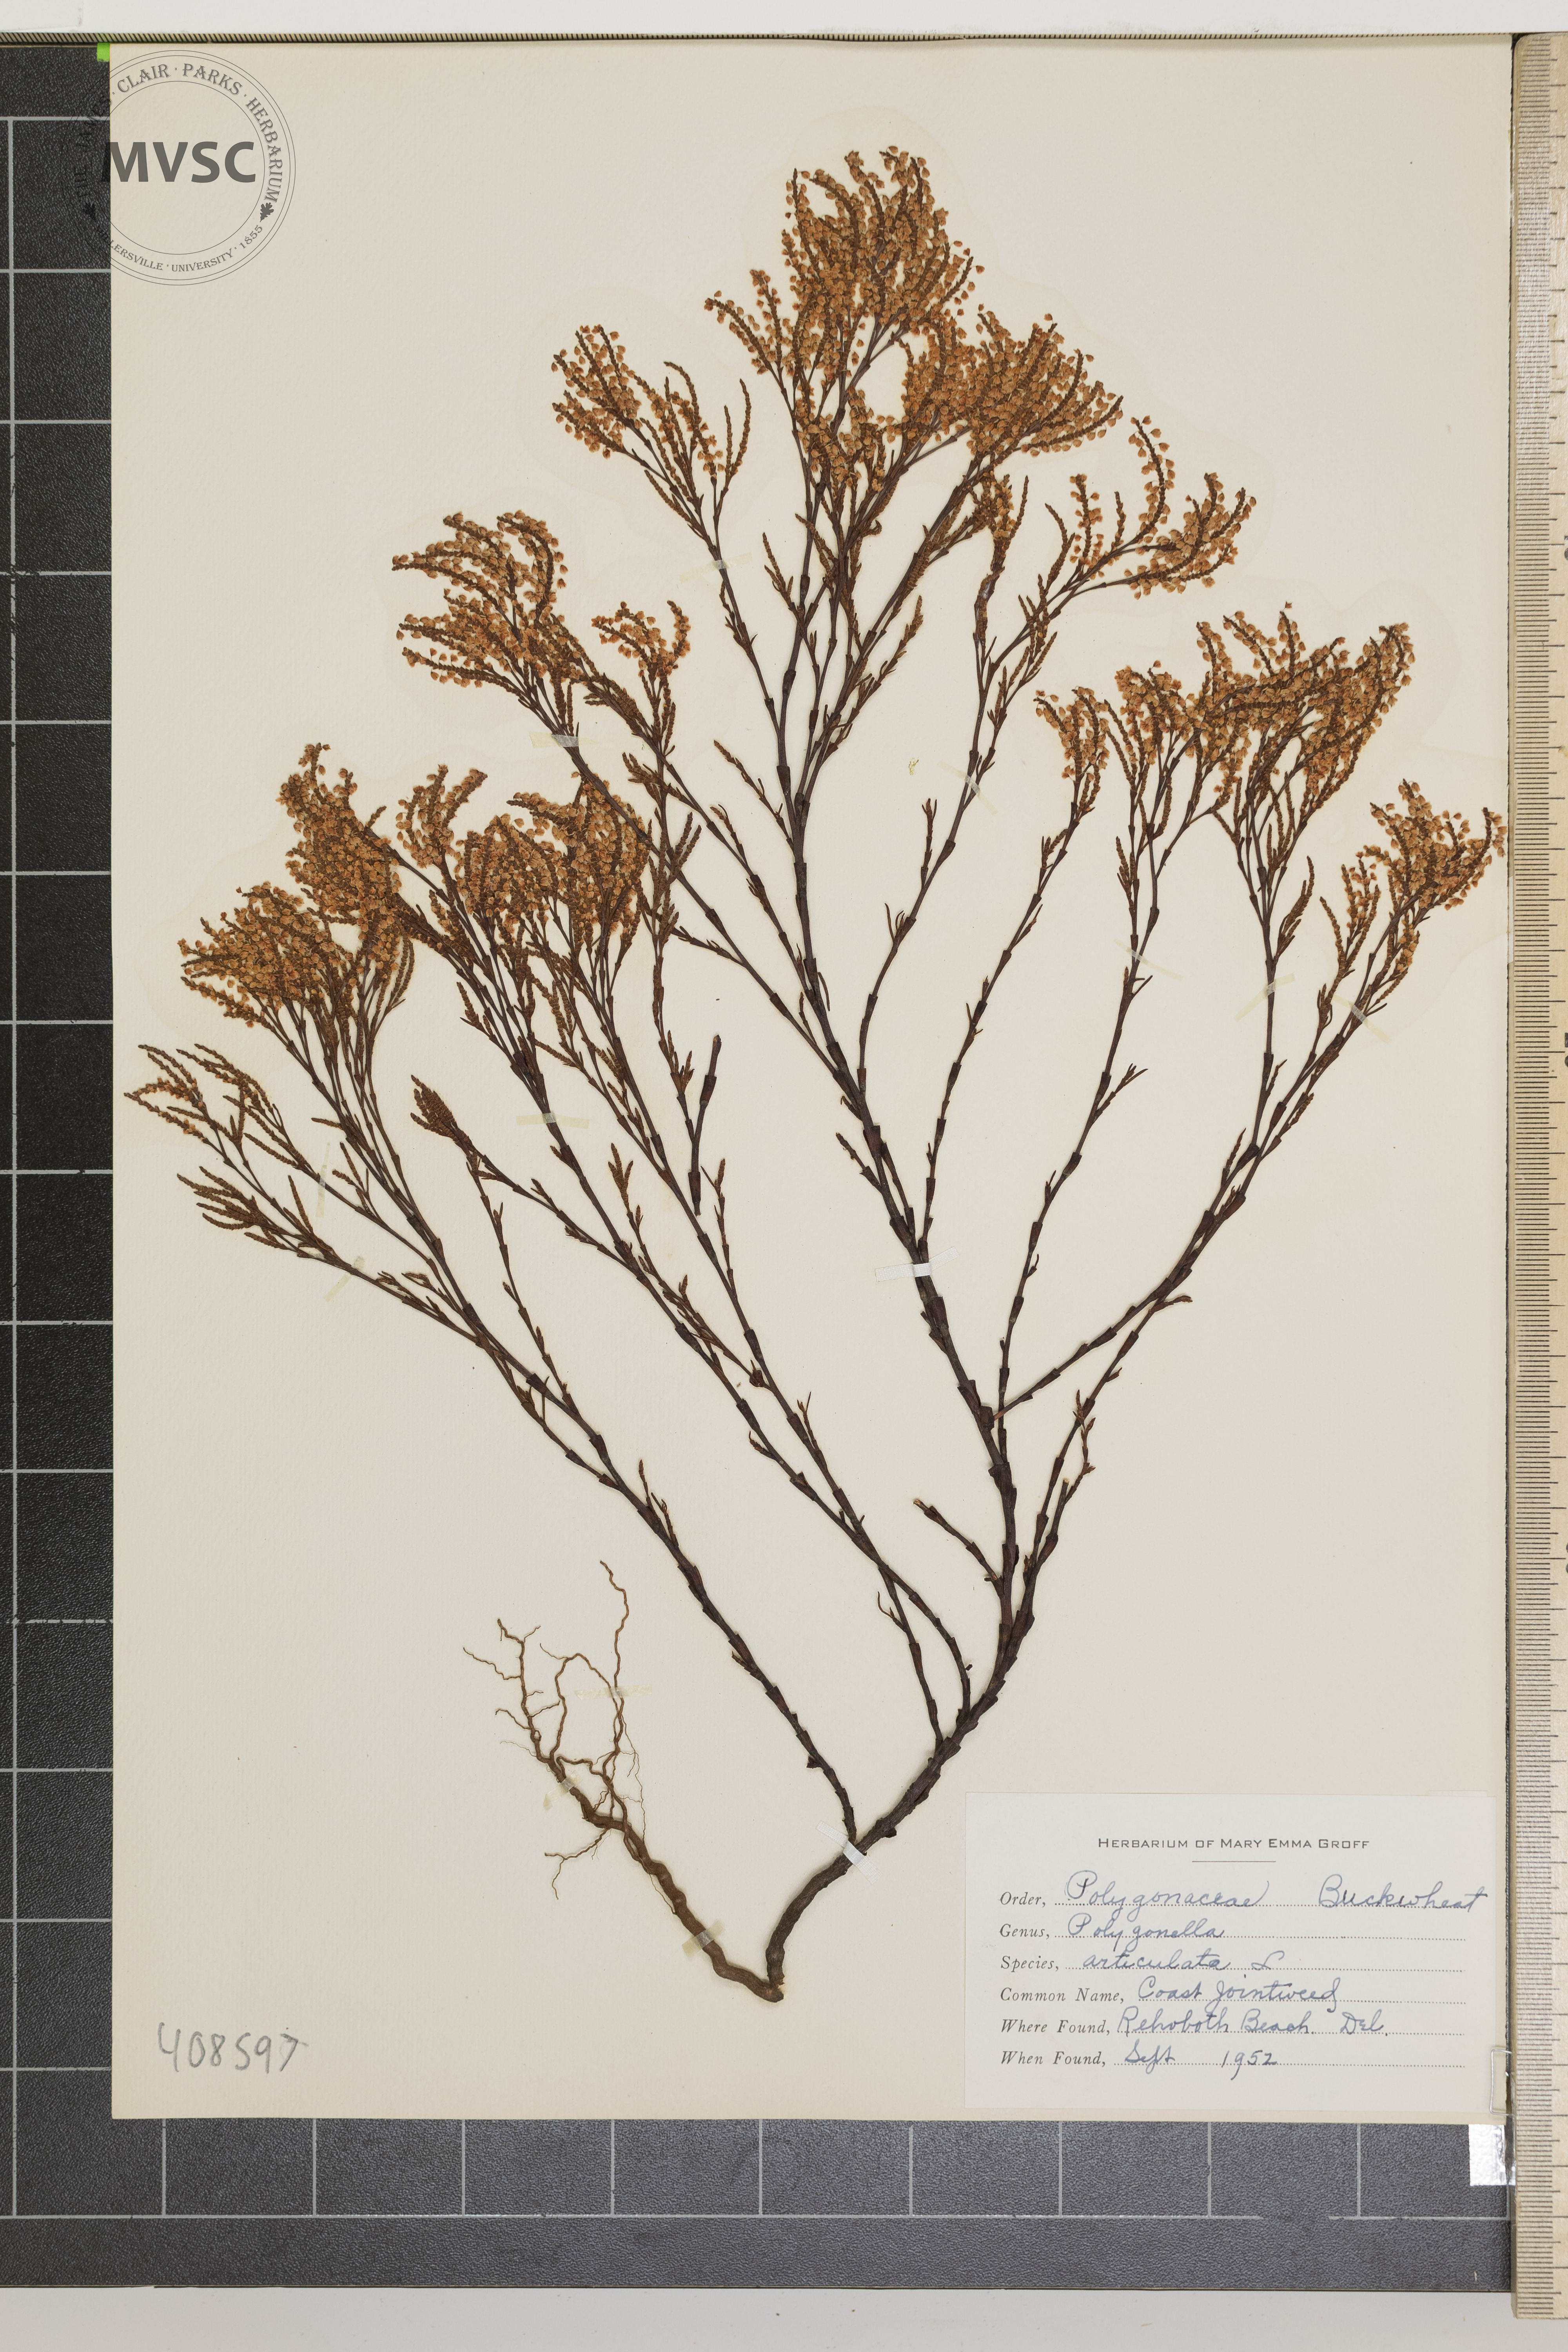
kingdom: Plantae
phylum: Tracheophyta
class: Magnoliopsida
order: Caryophyllales
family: Polygonaceae
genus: Polygonella
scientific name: Polygonella articulata
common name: Coast Jointweed
